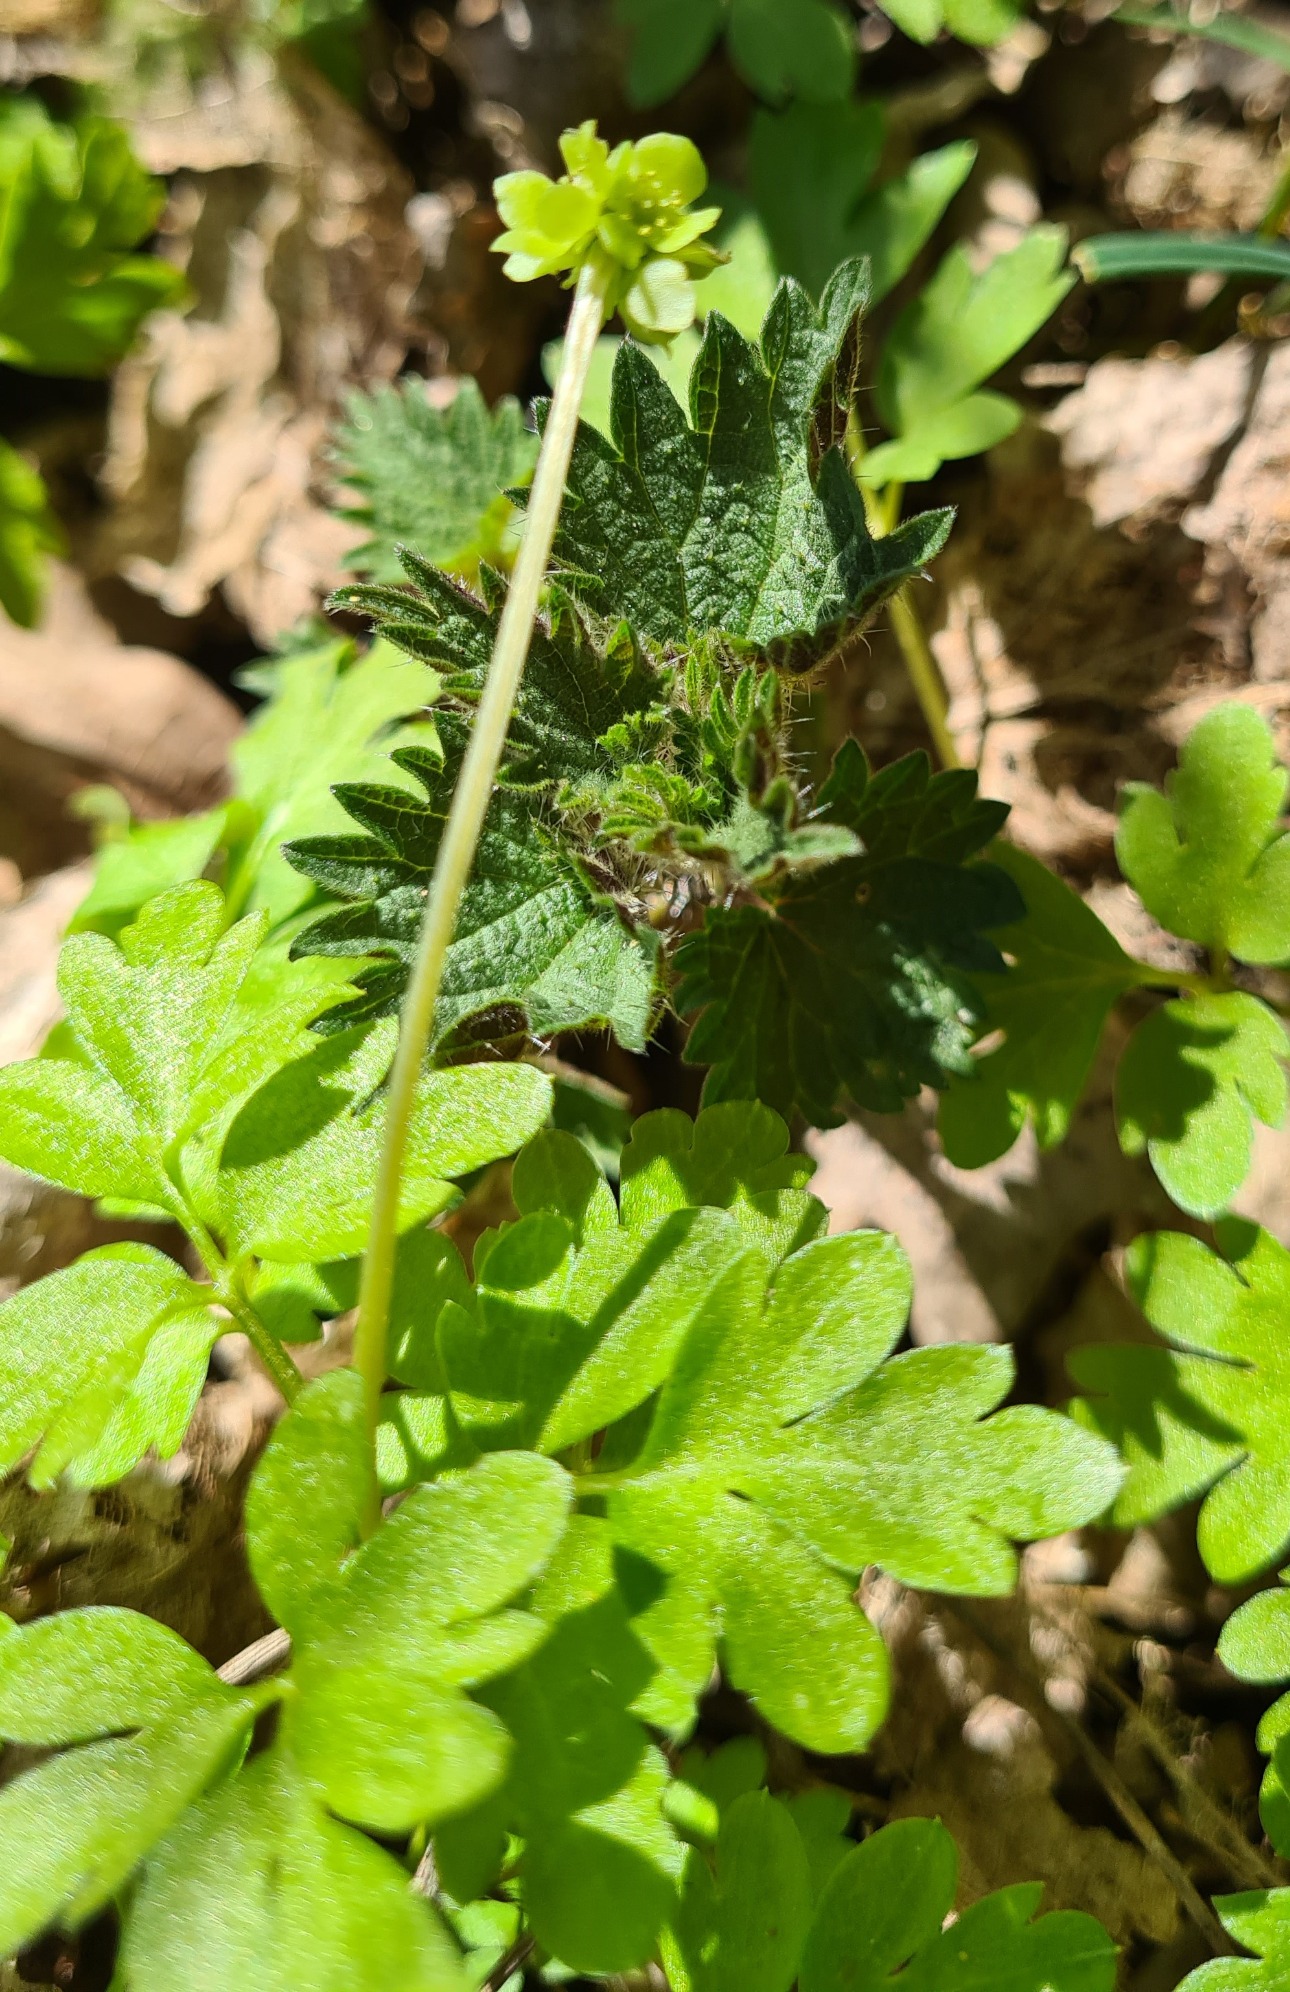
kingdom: Plantae
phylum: Tracheophyta
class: Magnoliopsida
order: Dipsacales
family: Viburnaceae
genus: Adoxa
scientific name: Adoxa moschatellina
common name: Desmerurt
